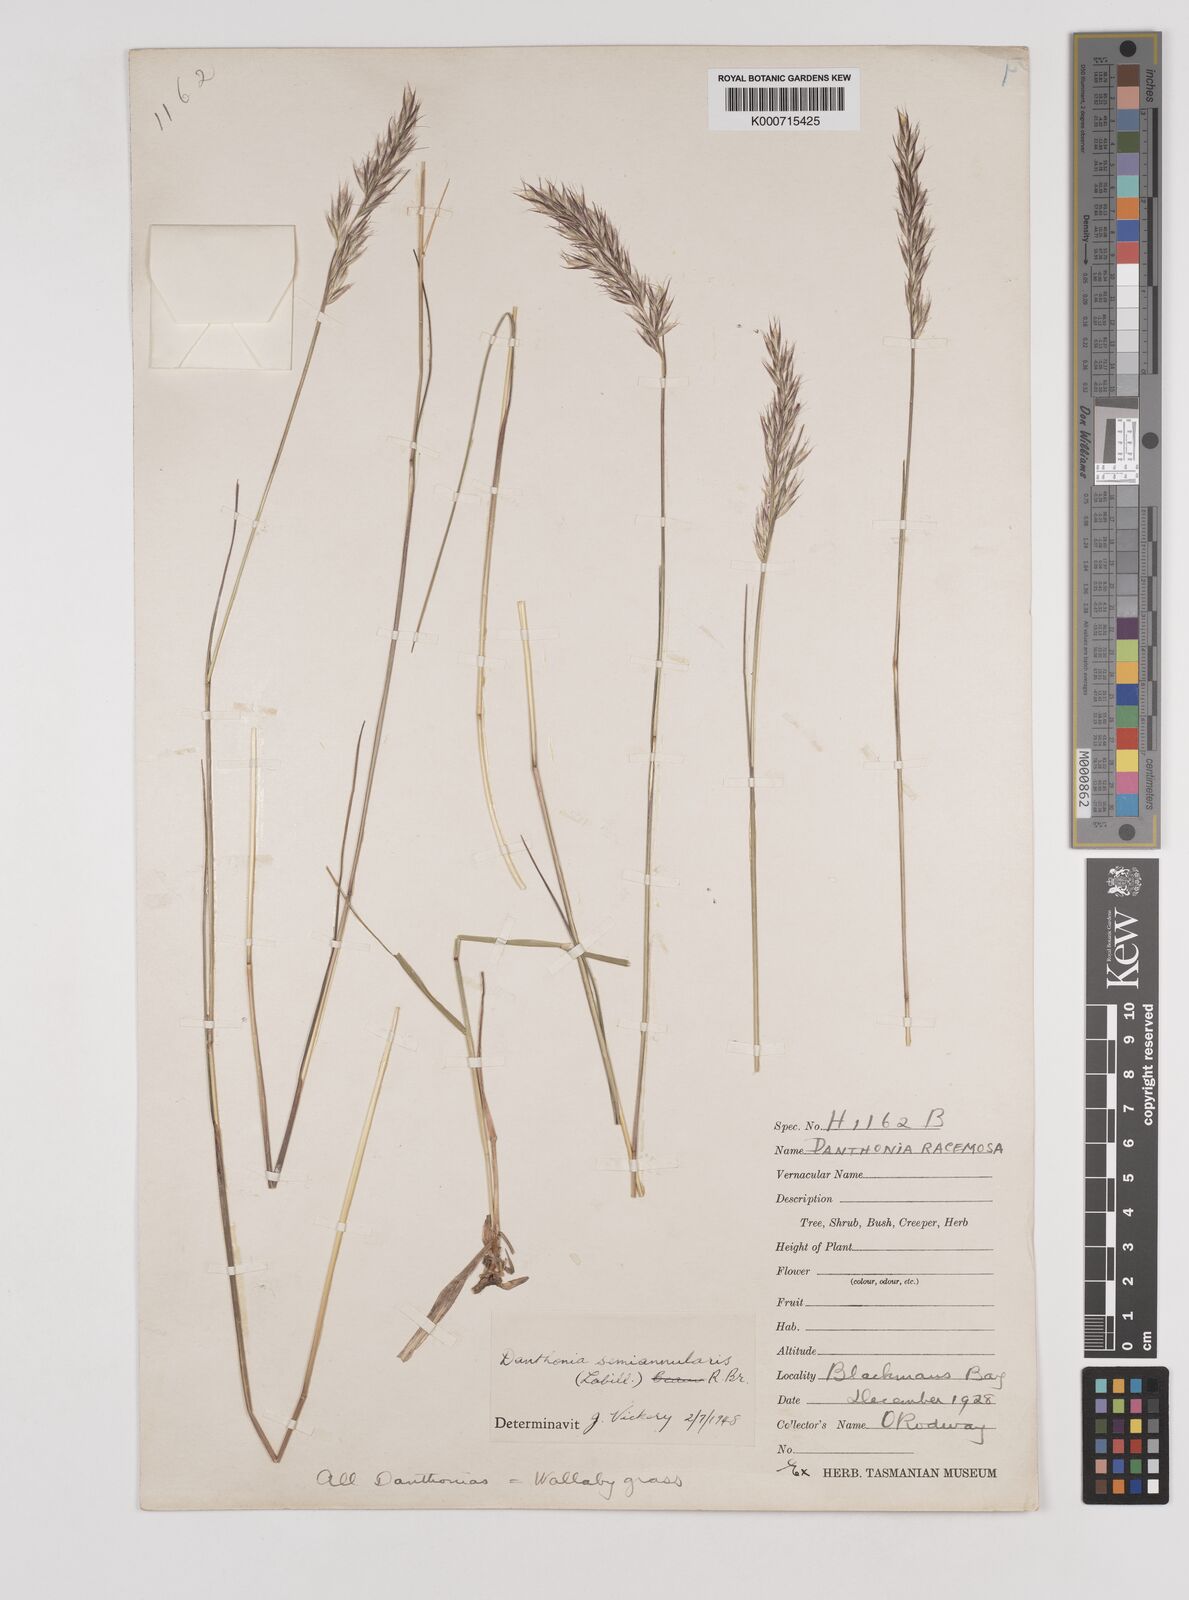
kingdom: Plantae
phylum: Tracheophyta
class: Liliopsida
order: Poales
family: Poaceae
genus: Rytidosperma
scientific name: Rytidosperma semiannulare
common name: Tasmanian wallaby grass
